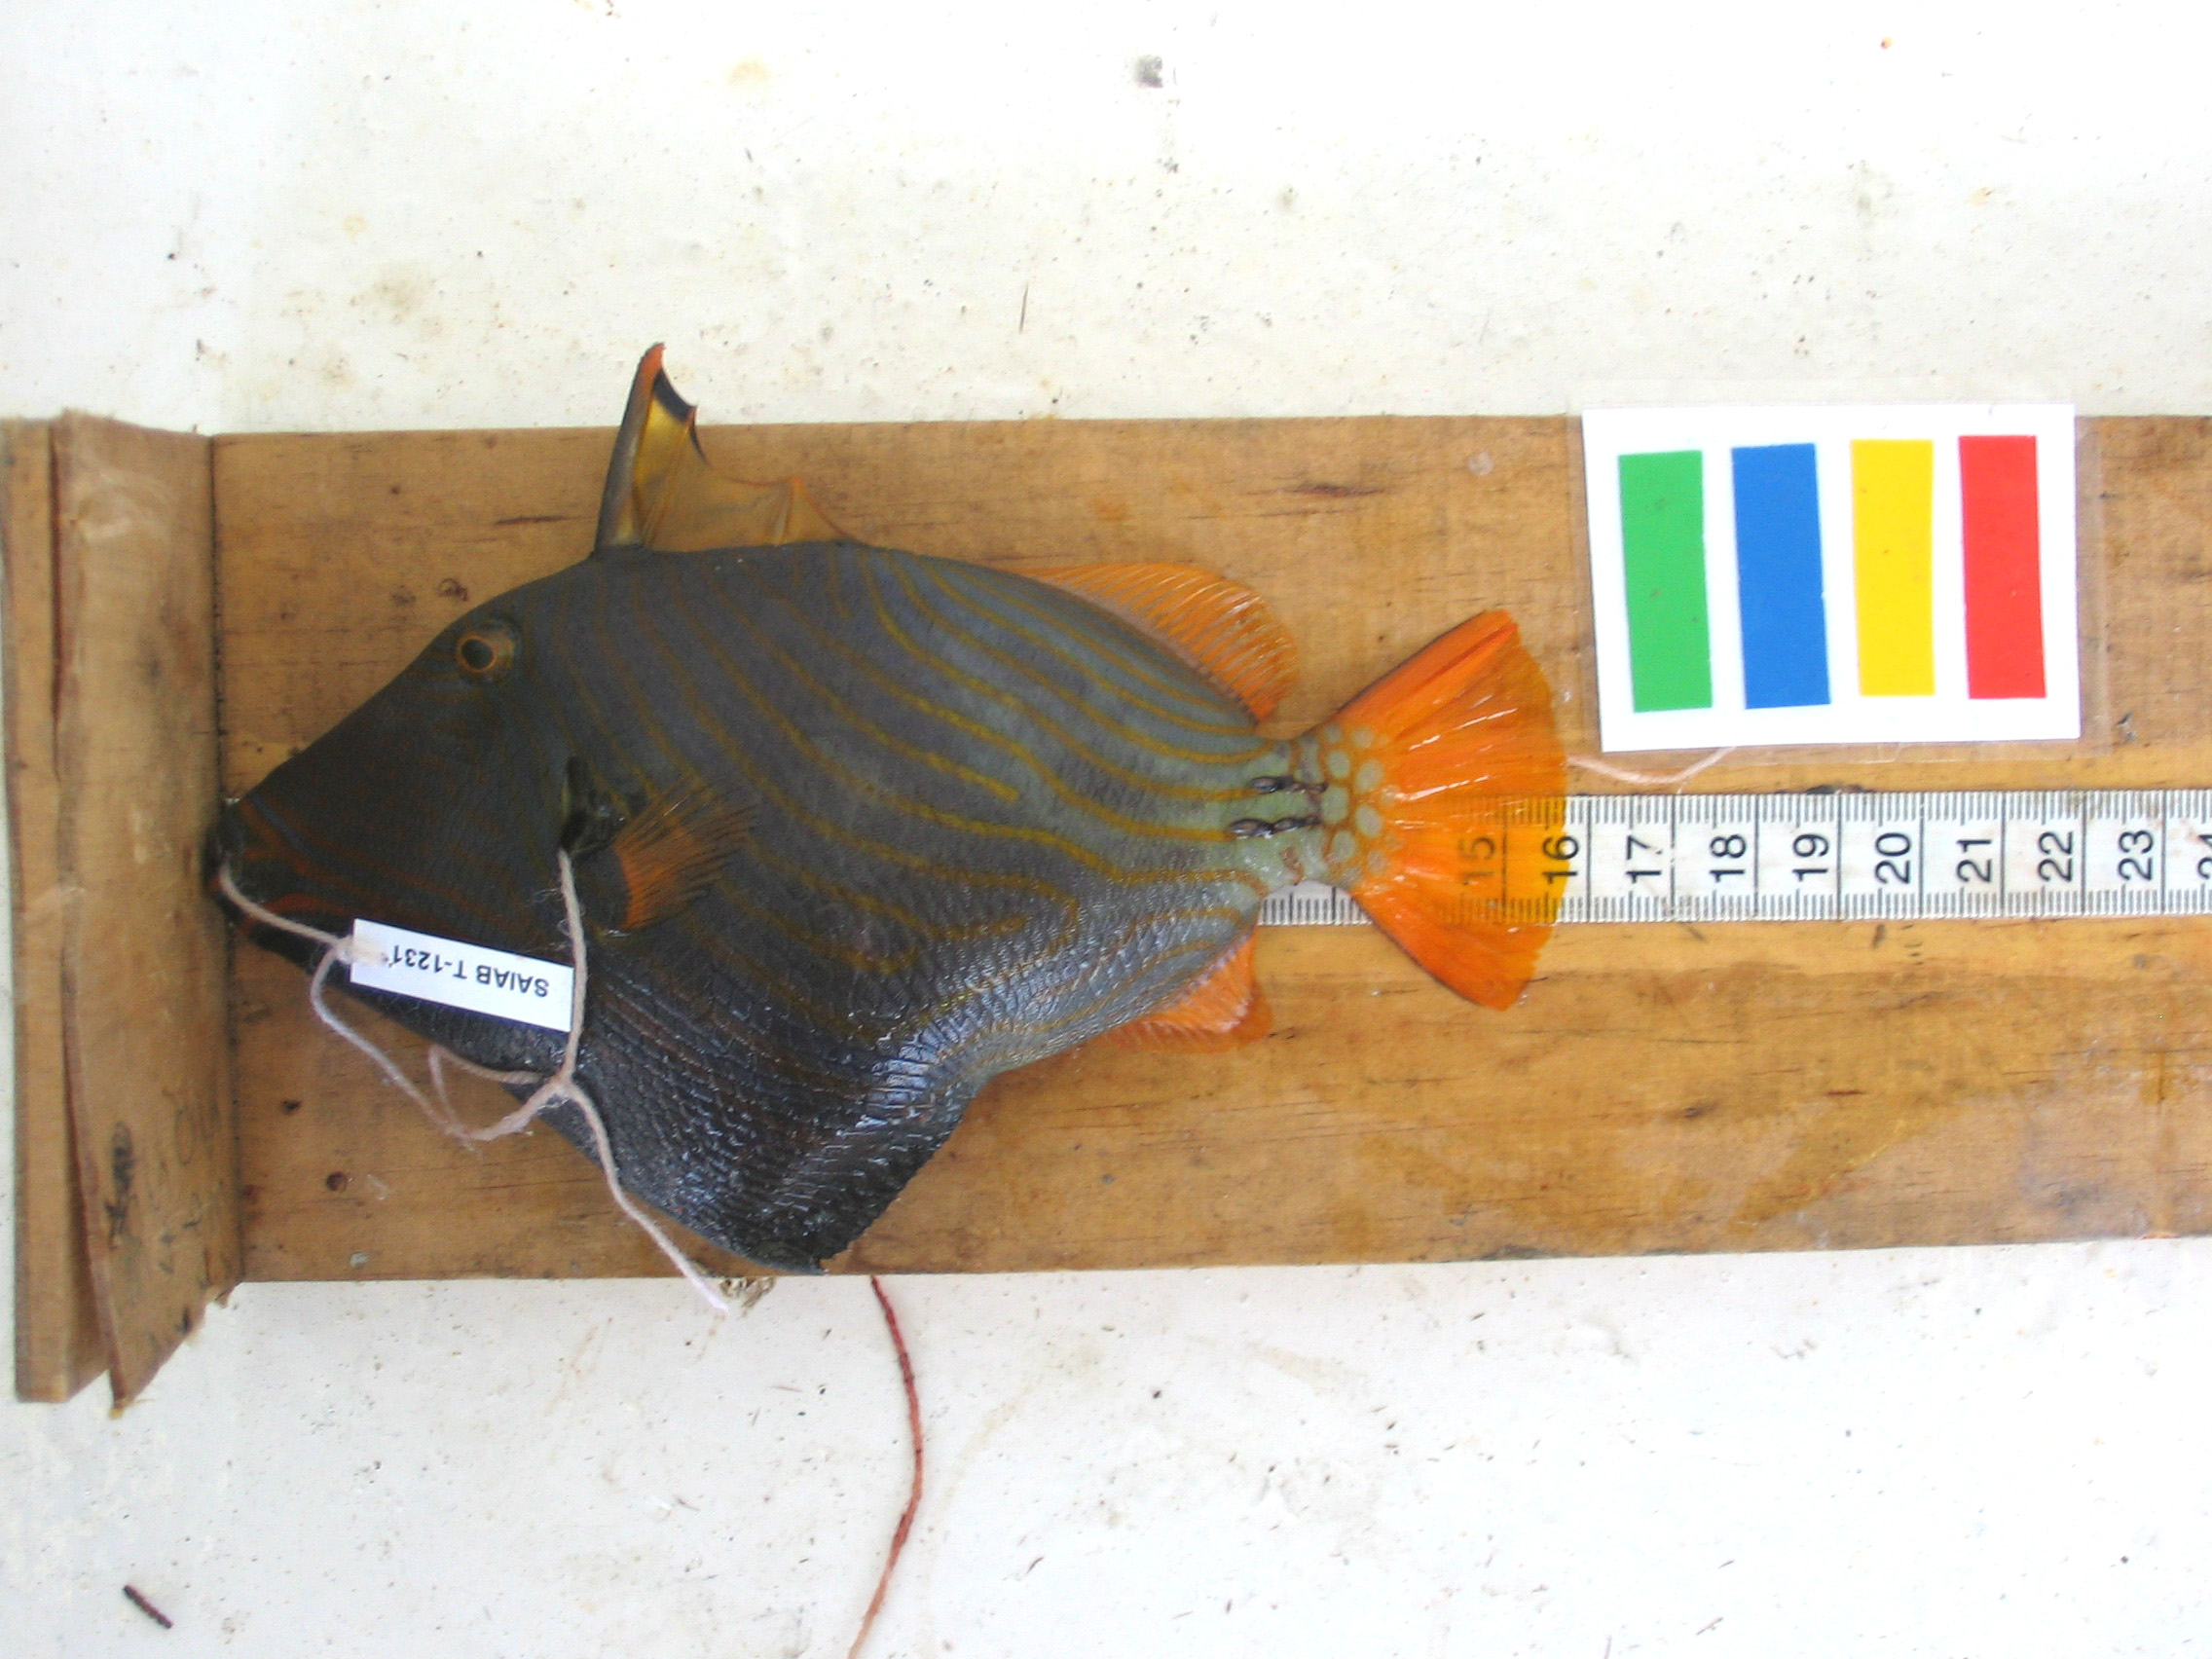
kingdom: Animalia
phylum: Chordata
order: Tetraodontiformes
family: Balistidae
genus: Balistapus
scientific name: Balistapus undulatus
